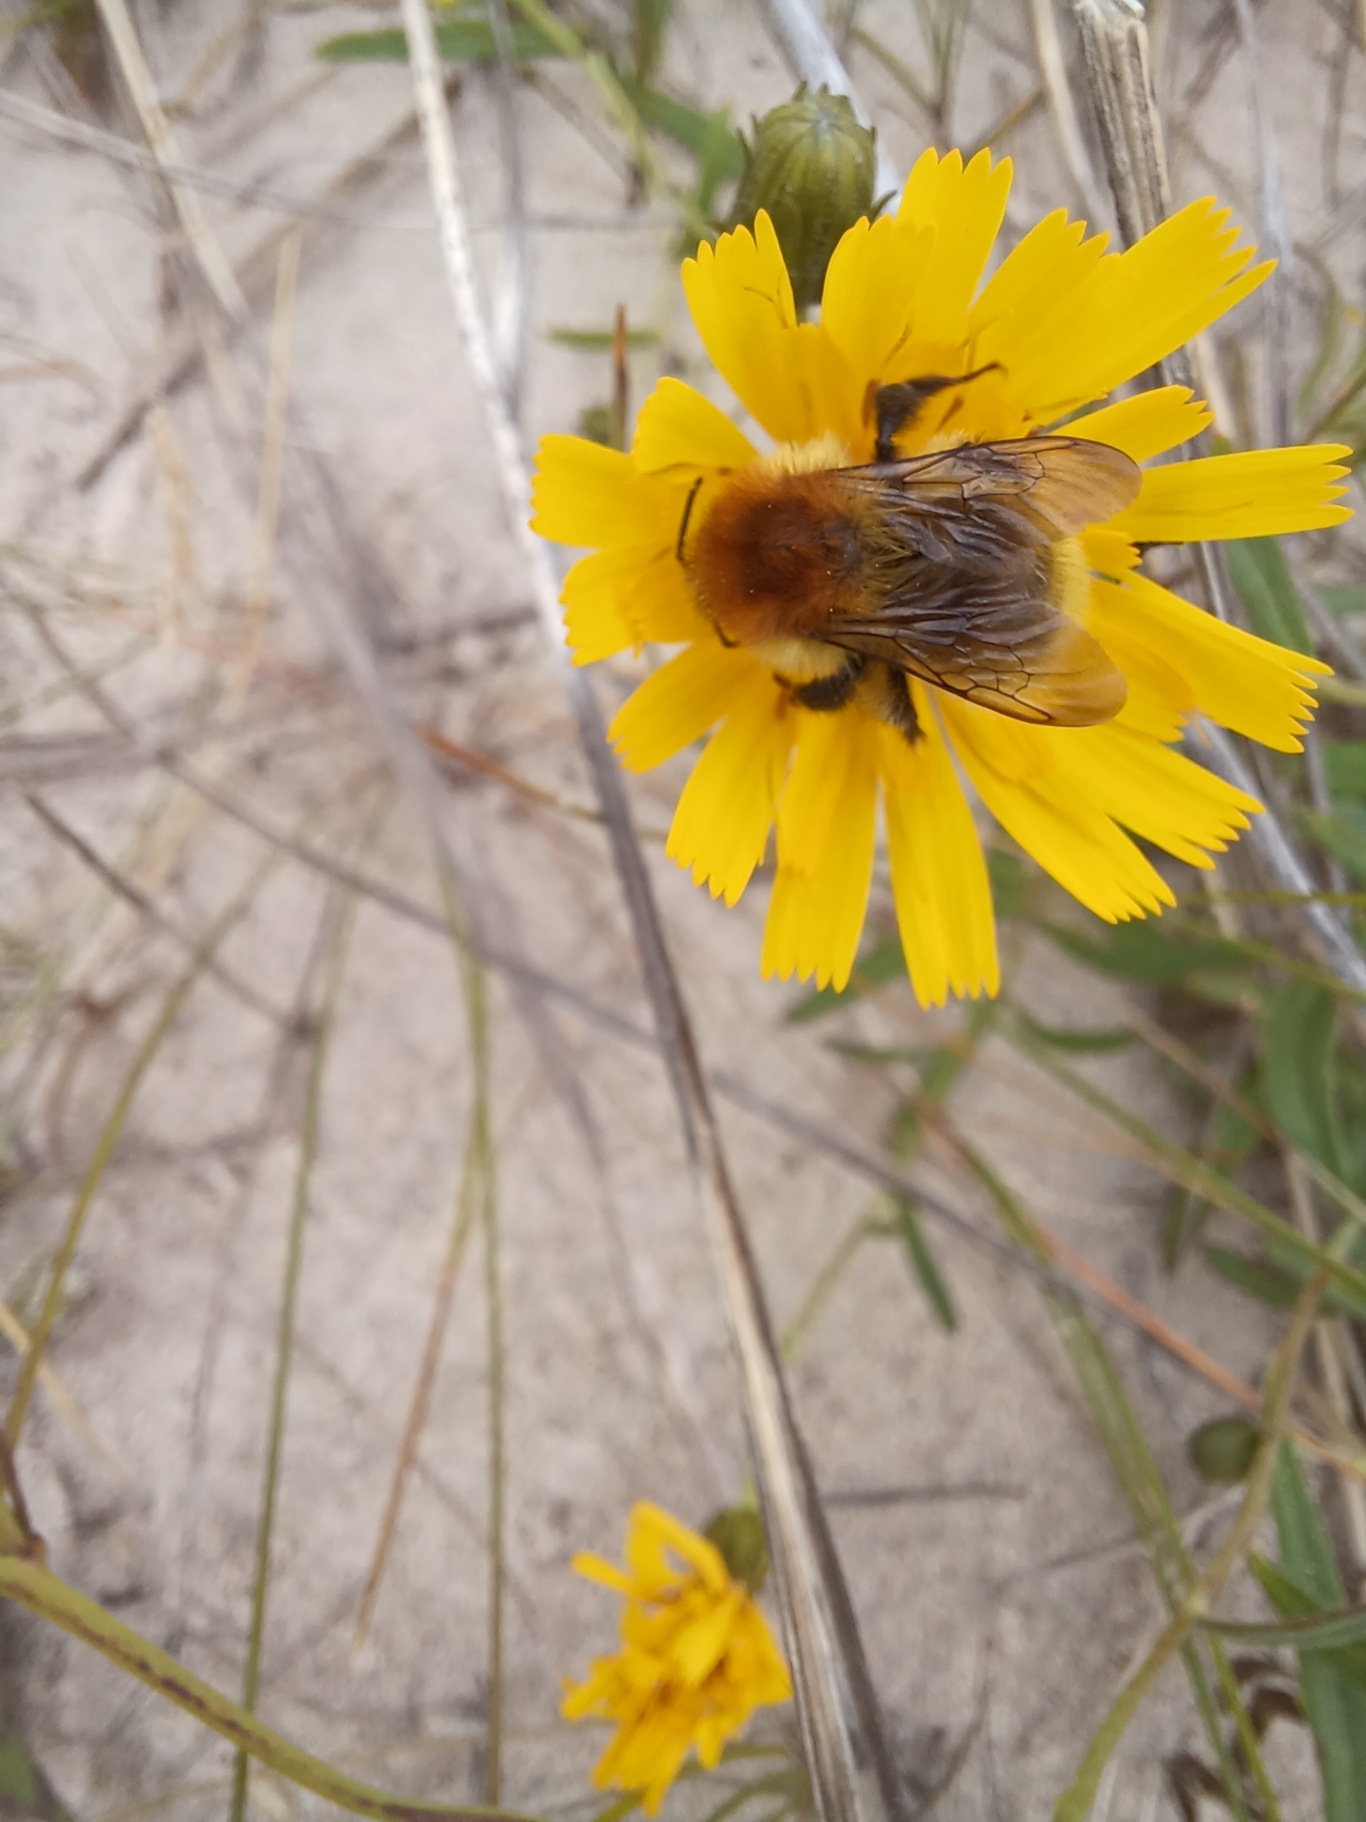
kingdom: Animalia
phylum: Arthropoda
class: Insecta
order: Hymenoptera
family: Apidae
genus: Bombus
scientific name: Bombus muscorum
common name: Moshumle
